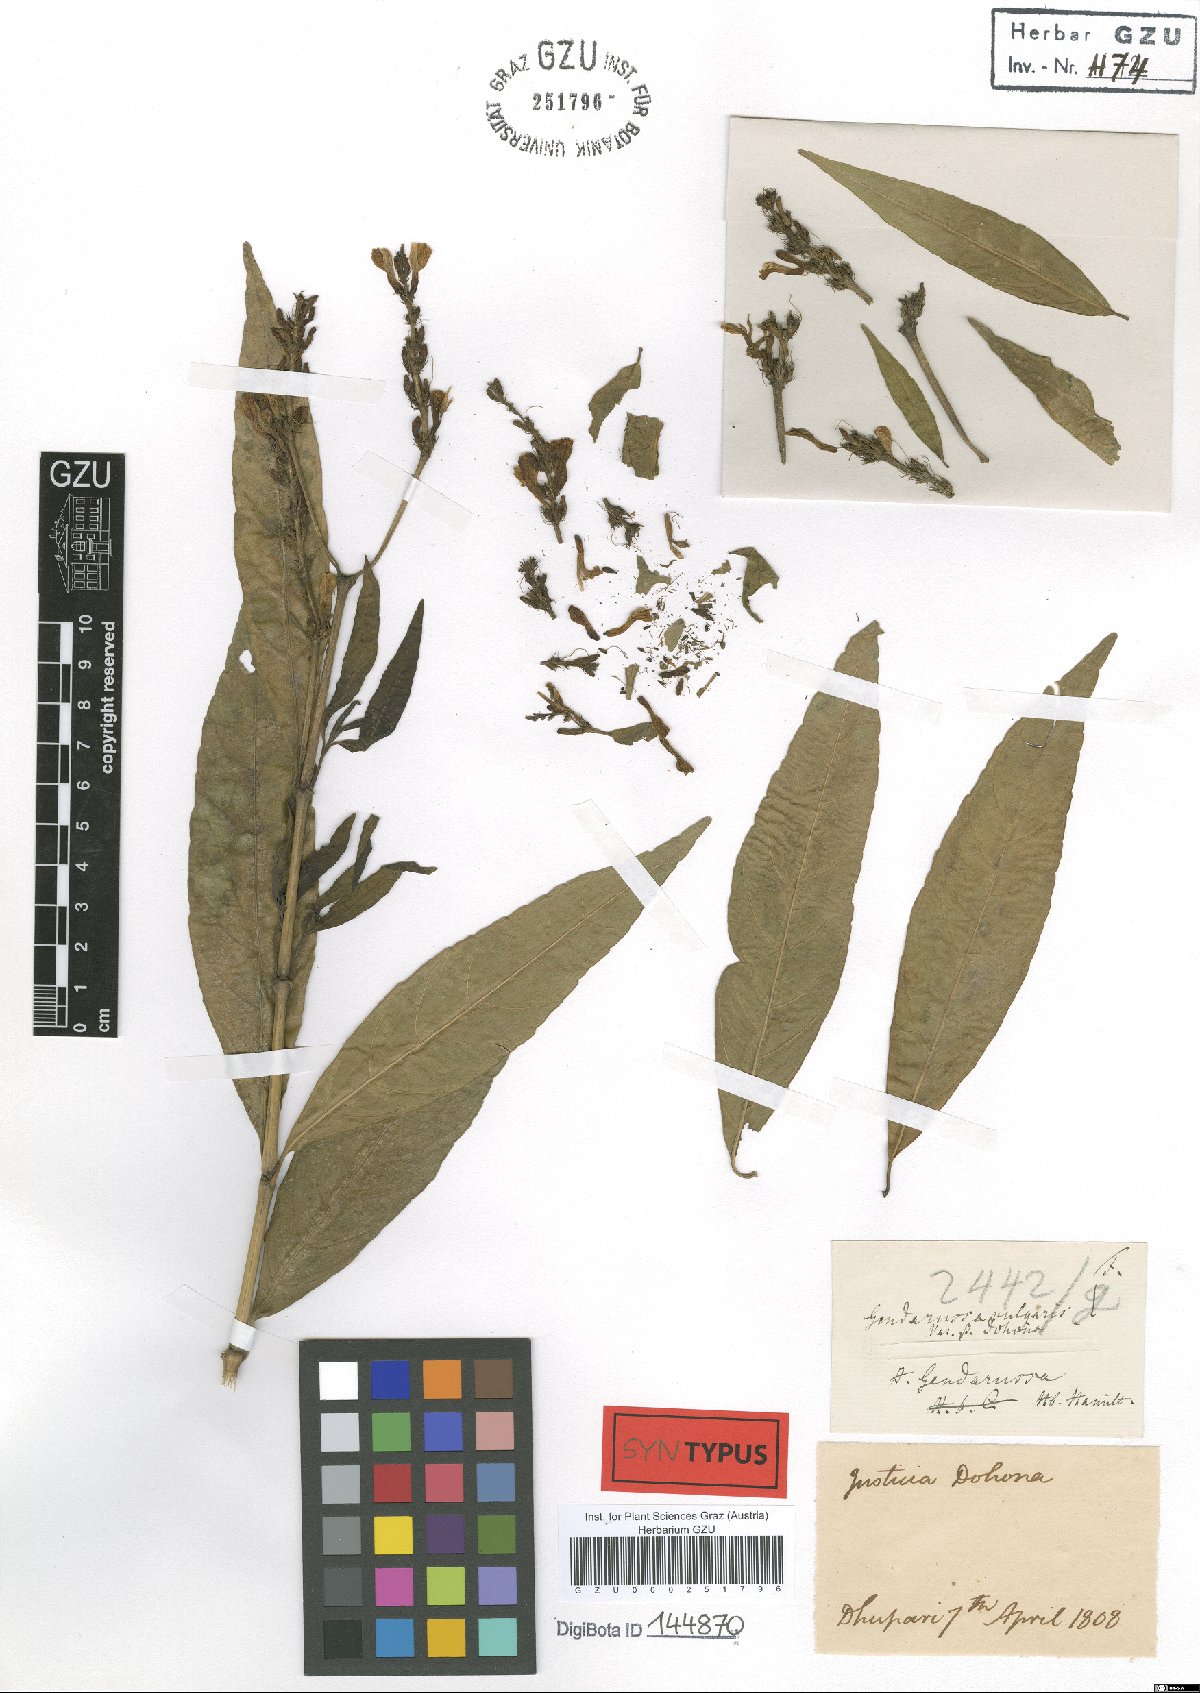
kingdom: Plantae
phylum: Tracheophyta
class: Magnoliopsida
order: Lamiales
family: Acanthaceae
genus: Justicia
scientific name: Justicia gendarussa
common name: Warer willow
